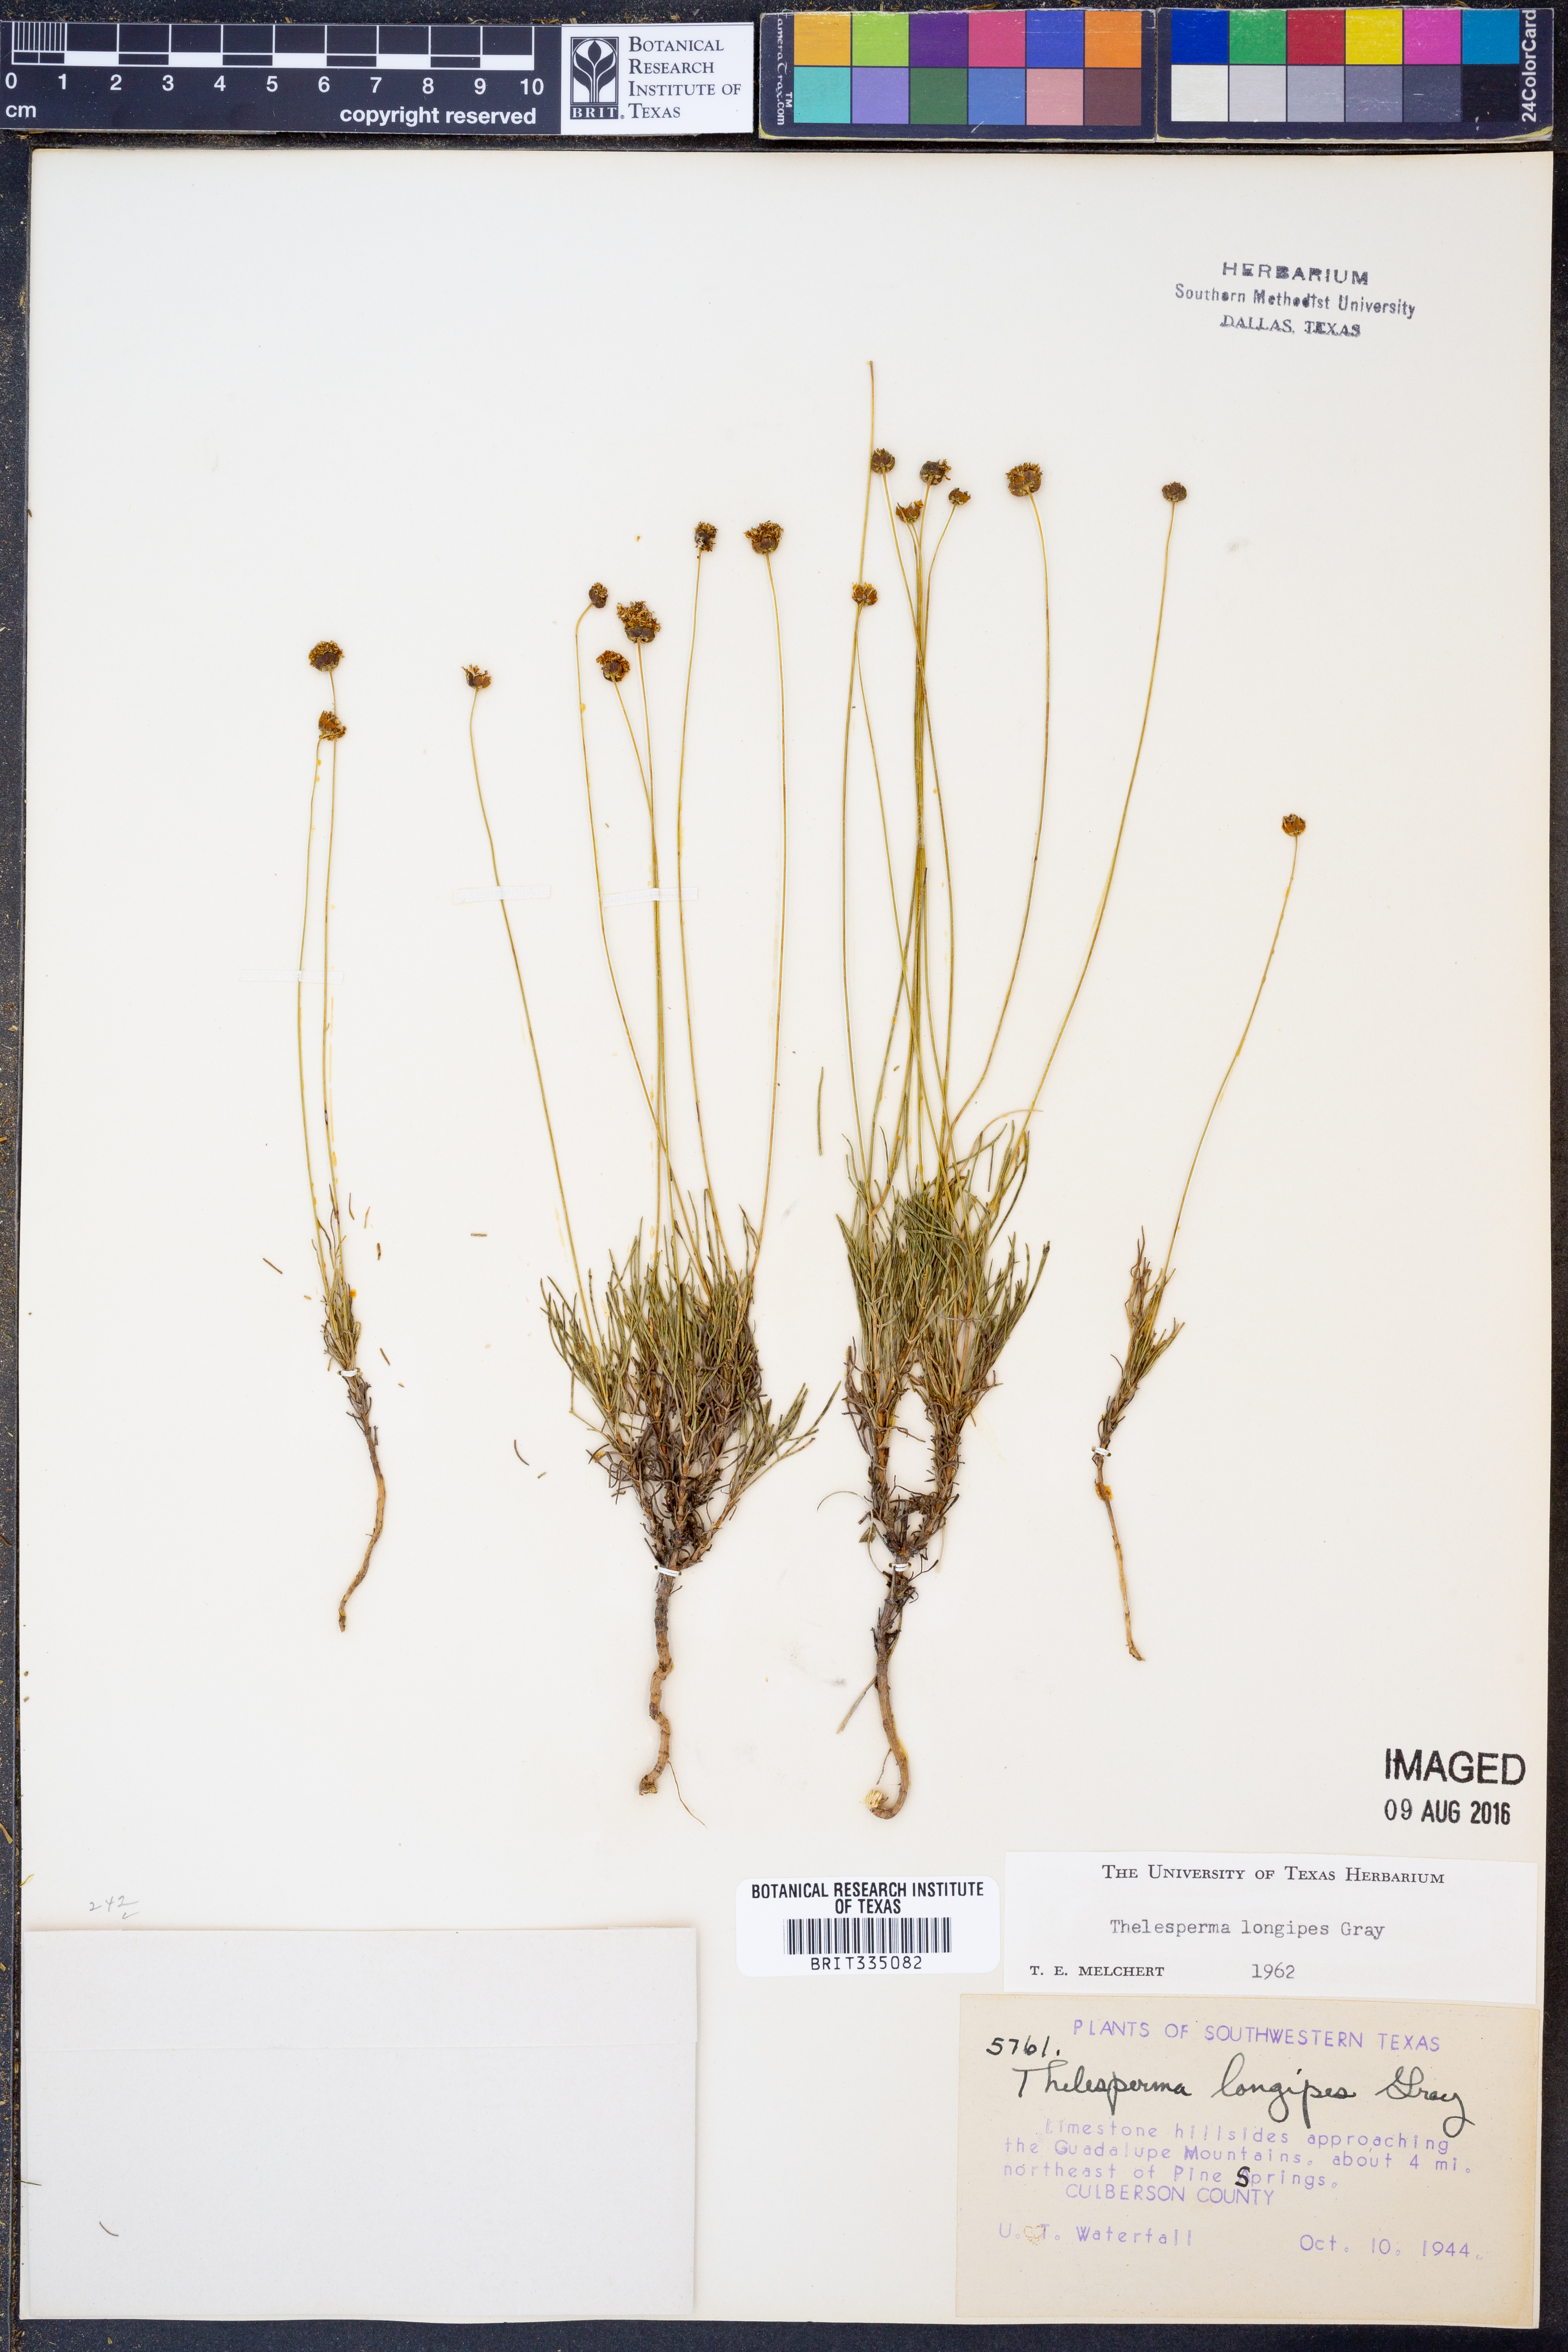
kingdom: Plantae
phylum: Tracheophyta
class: Magnoliopsida
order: Asterales
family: Asteraceae
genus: Thelesperma
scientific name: Thelesperma longipes
